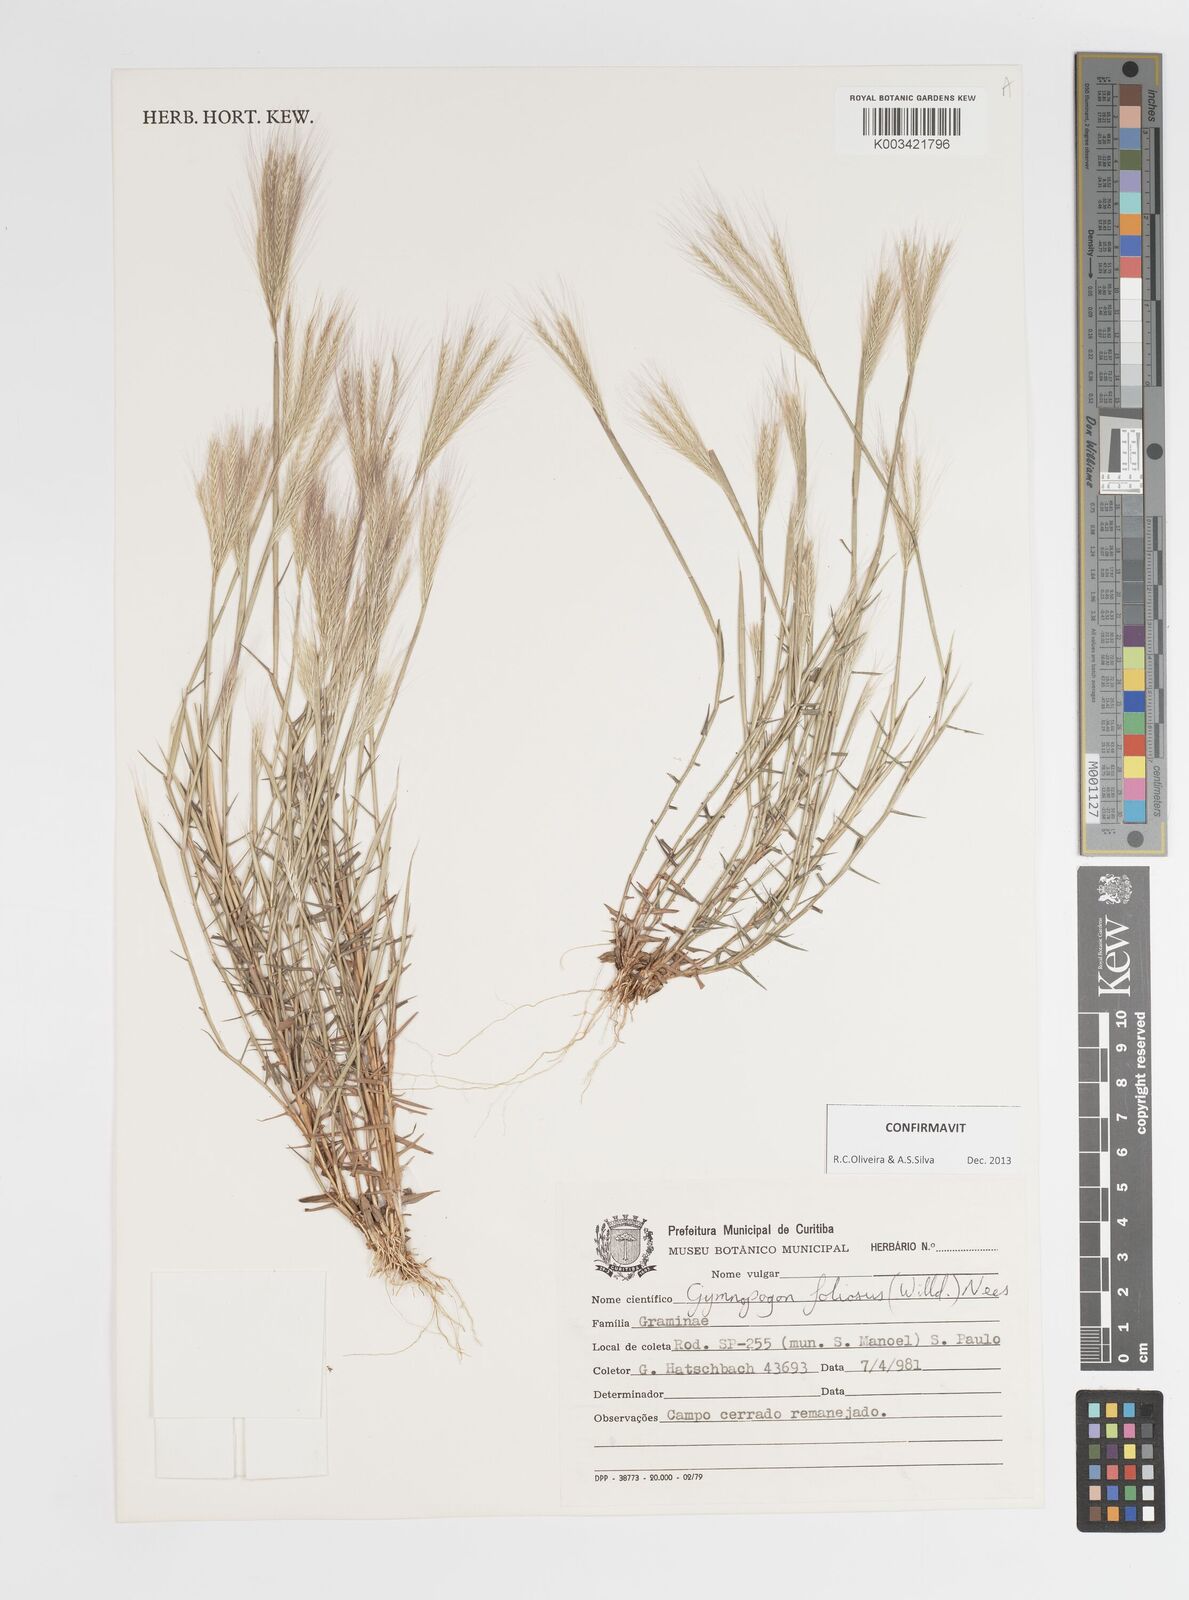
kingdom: Plantae
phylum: Tracheophyta
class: Liliopsida
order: Poales
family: Poaceae
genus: Gymnopogon
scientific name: Gymnopogon foliosus
